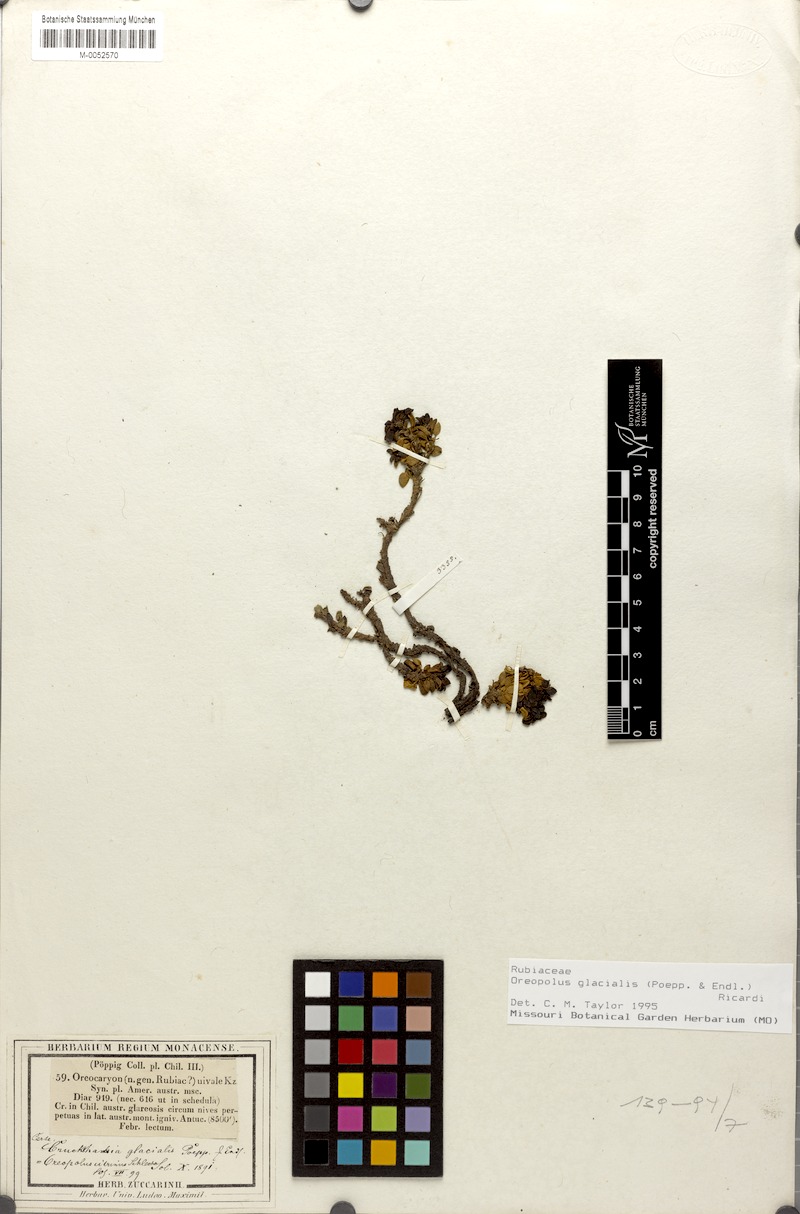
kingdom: Plantae
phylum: Tracheophyta
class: Magnoliopsida
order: Gentianales
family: Rubiaceae
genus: Oreopolus
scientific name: Oreopolus glacialis
